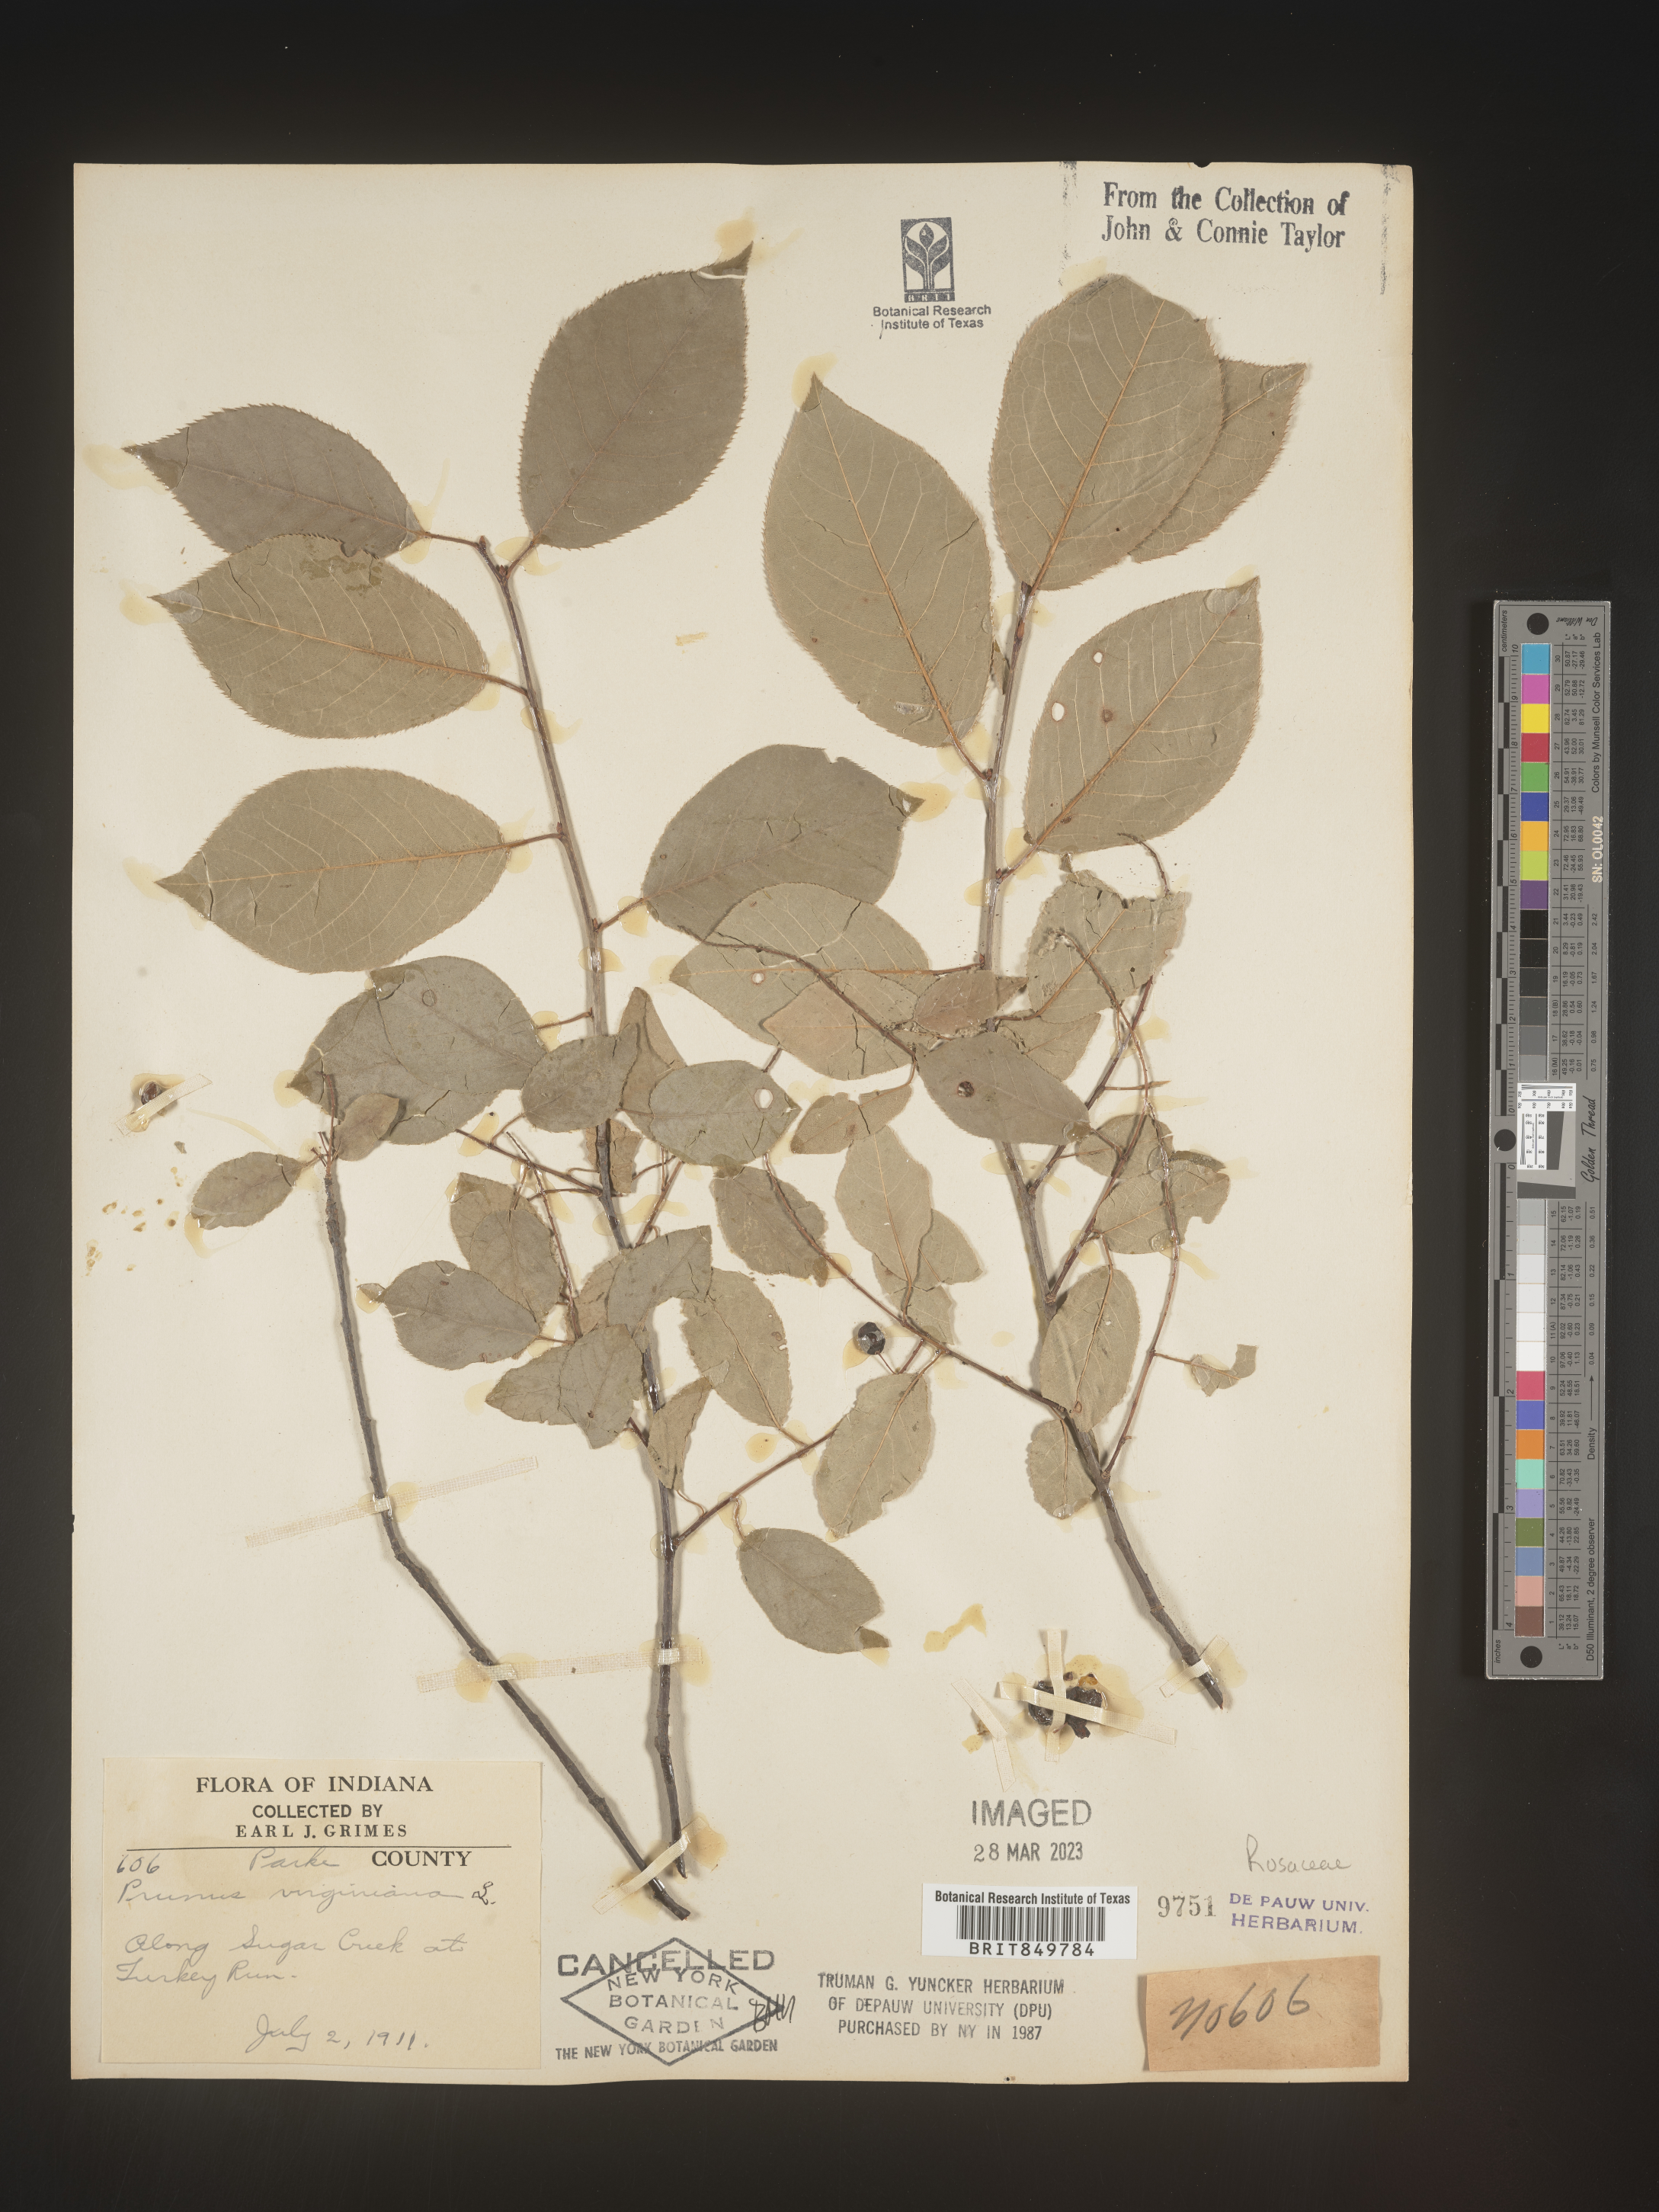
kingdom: Plantae
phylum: Tracheophyta
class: Magnoliopsida
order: Rosales
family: Rosaceae
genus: Prunus
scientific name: Prunus virginiana
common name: Chokecherry
